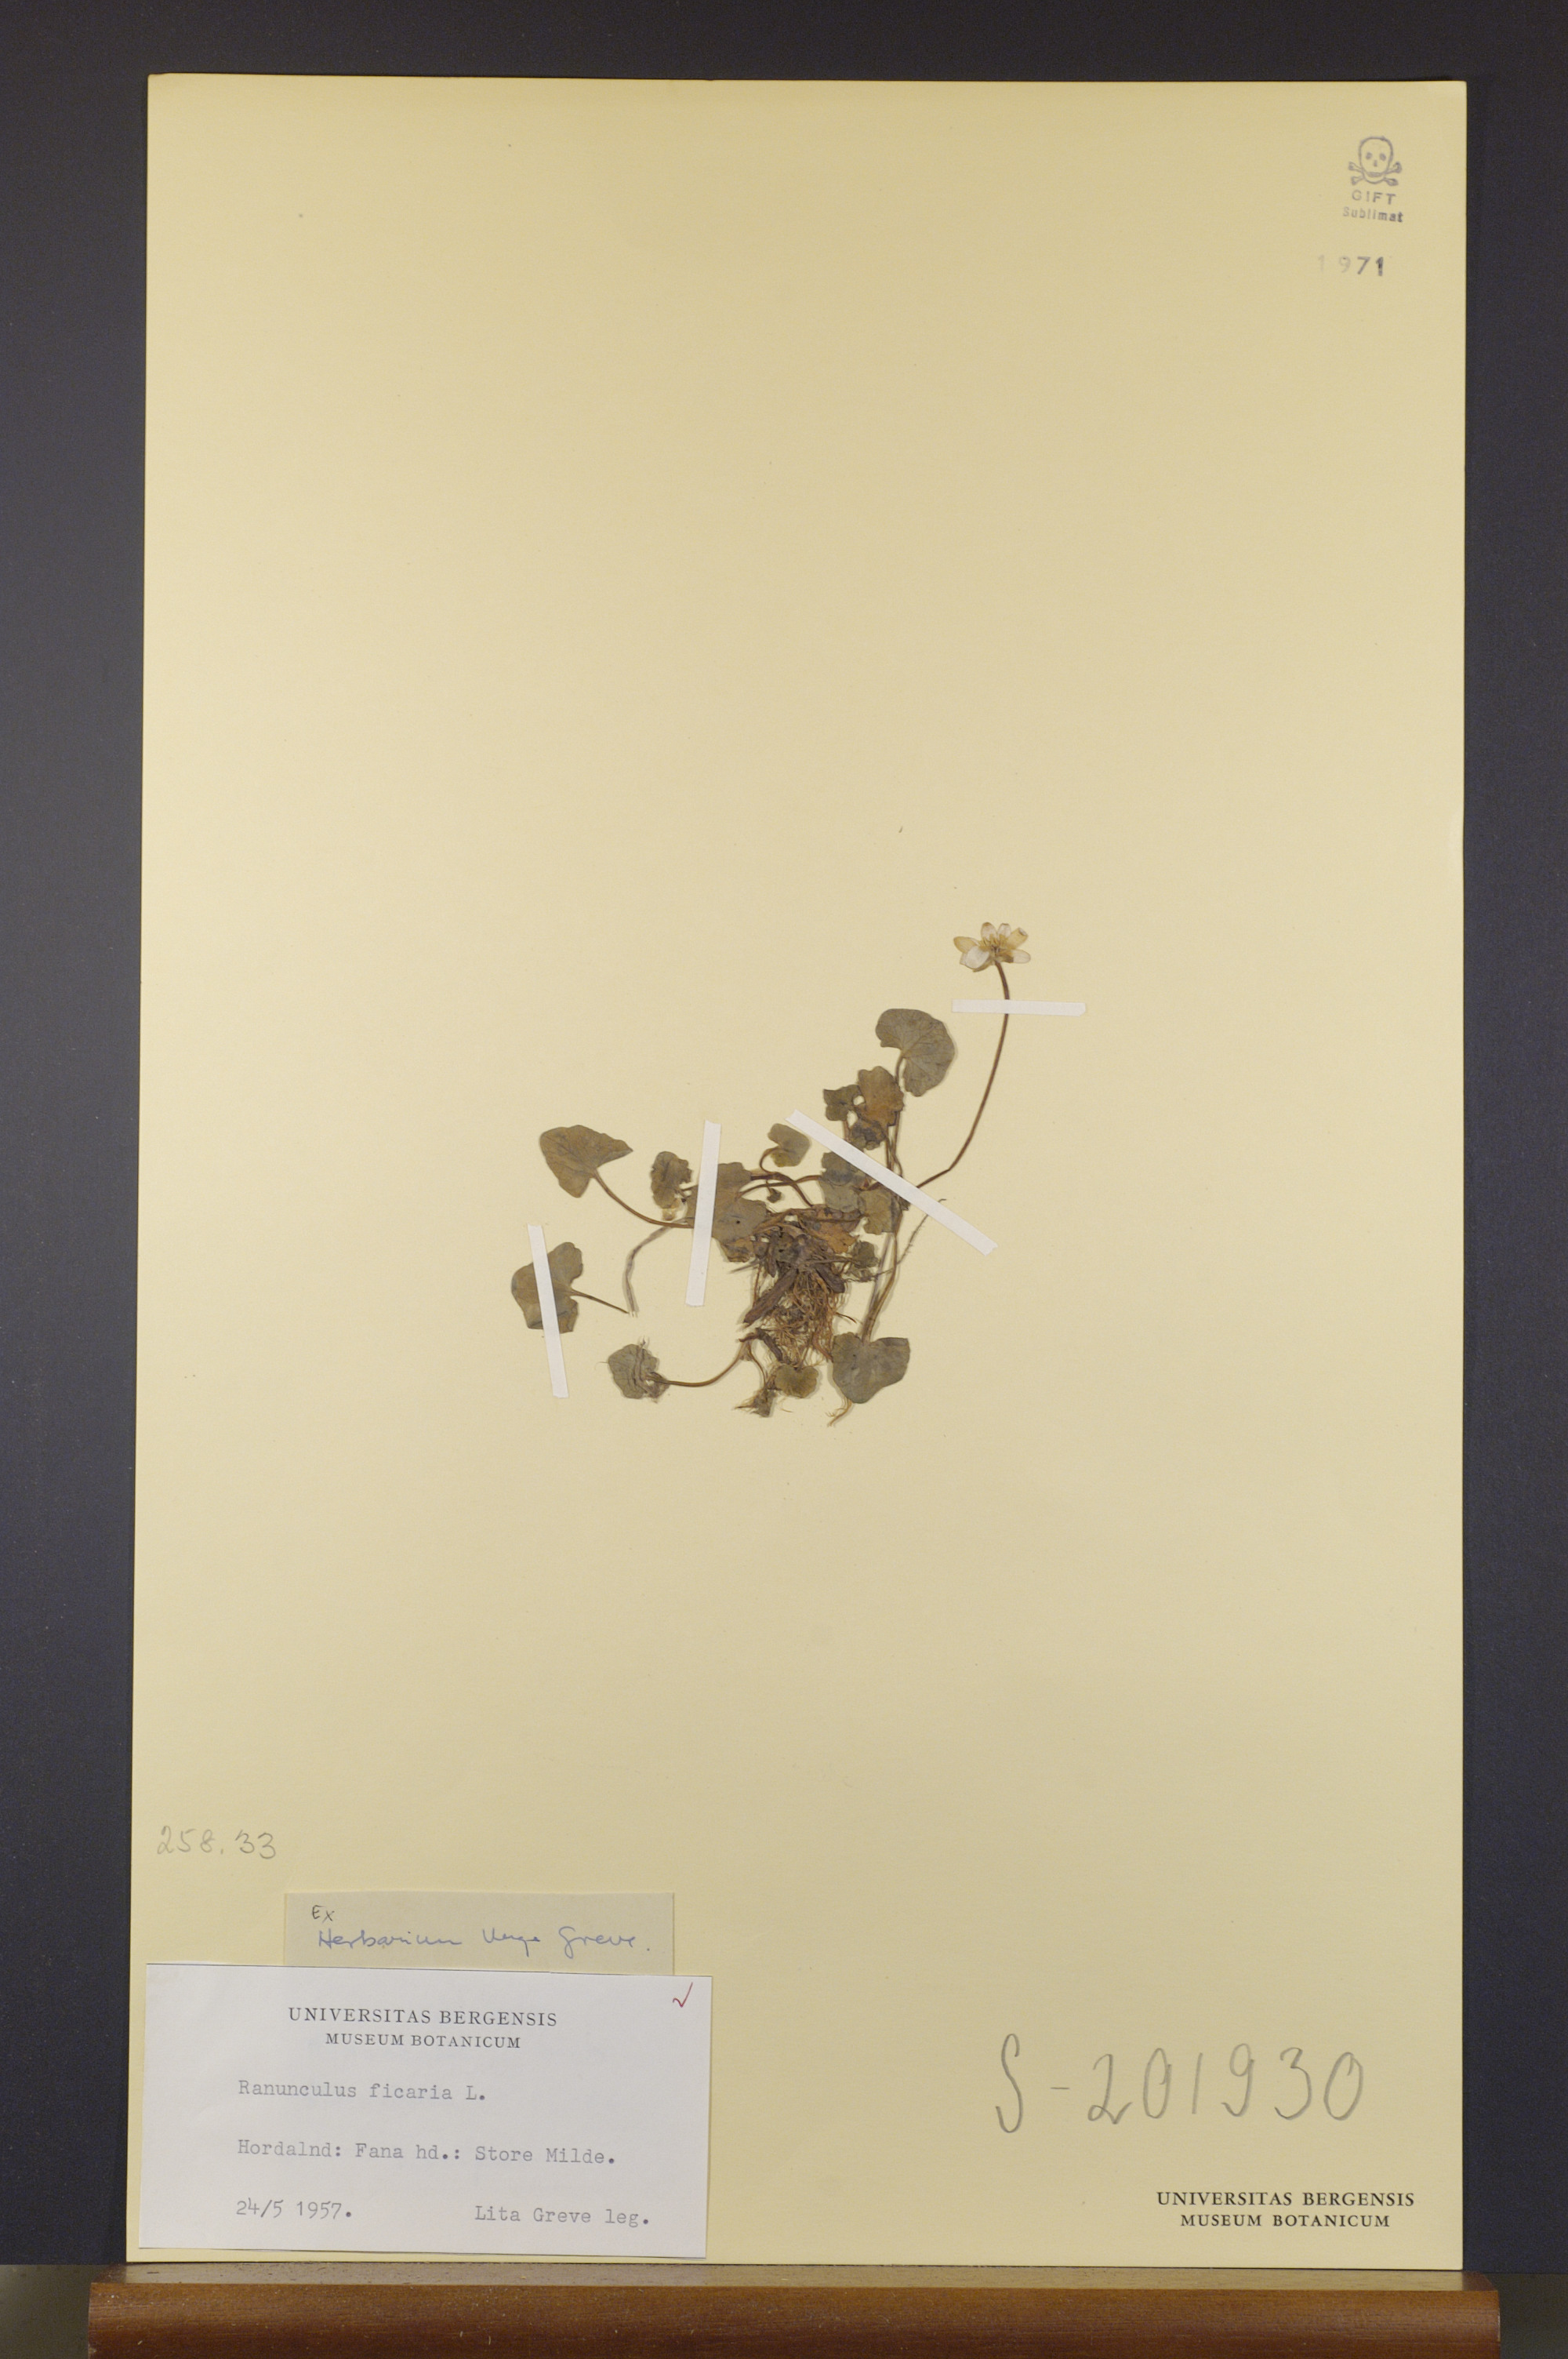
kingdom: Plantae
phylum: Tracheophyta
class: Magnoliopsida
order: Ranunculales
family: Ranunculaceae
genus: Ficaria
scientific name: Ficaria verna
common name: Lesser celandine
